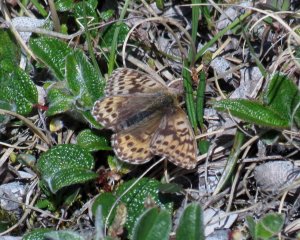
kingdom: Animalia
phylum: Arthropoda
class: Insecta
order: Lepidoptera
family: Nymphalidae
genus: Boloria
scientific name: Boloria chariclea
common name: Arctic Fritillary
